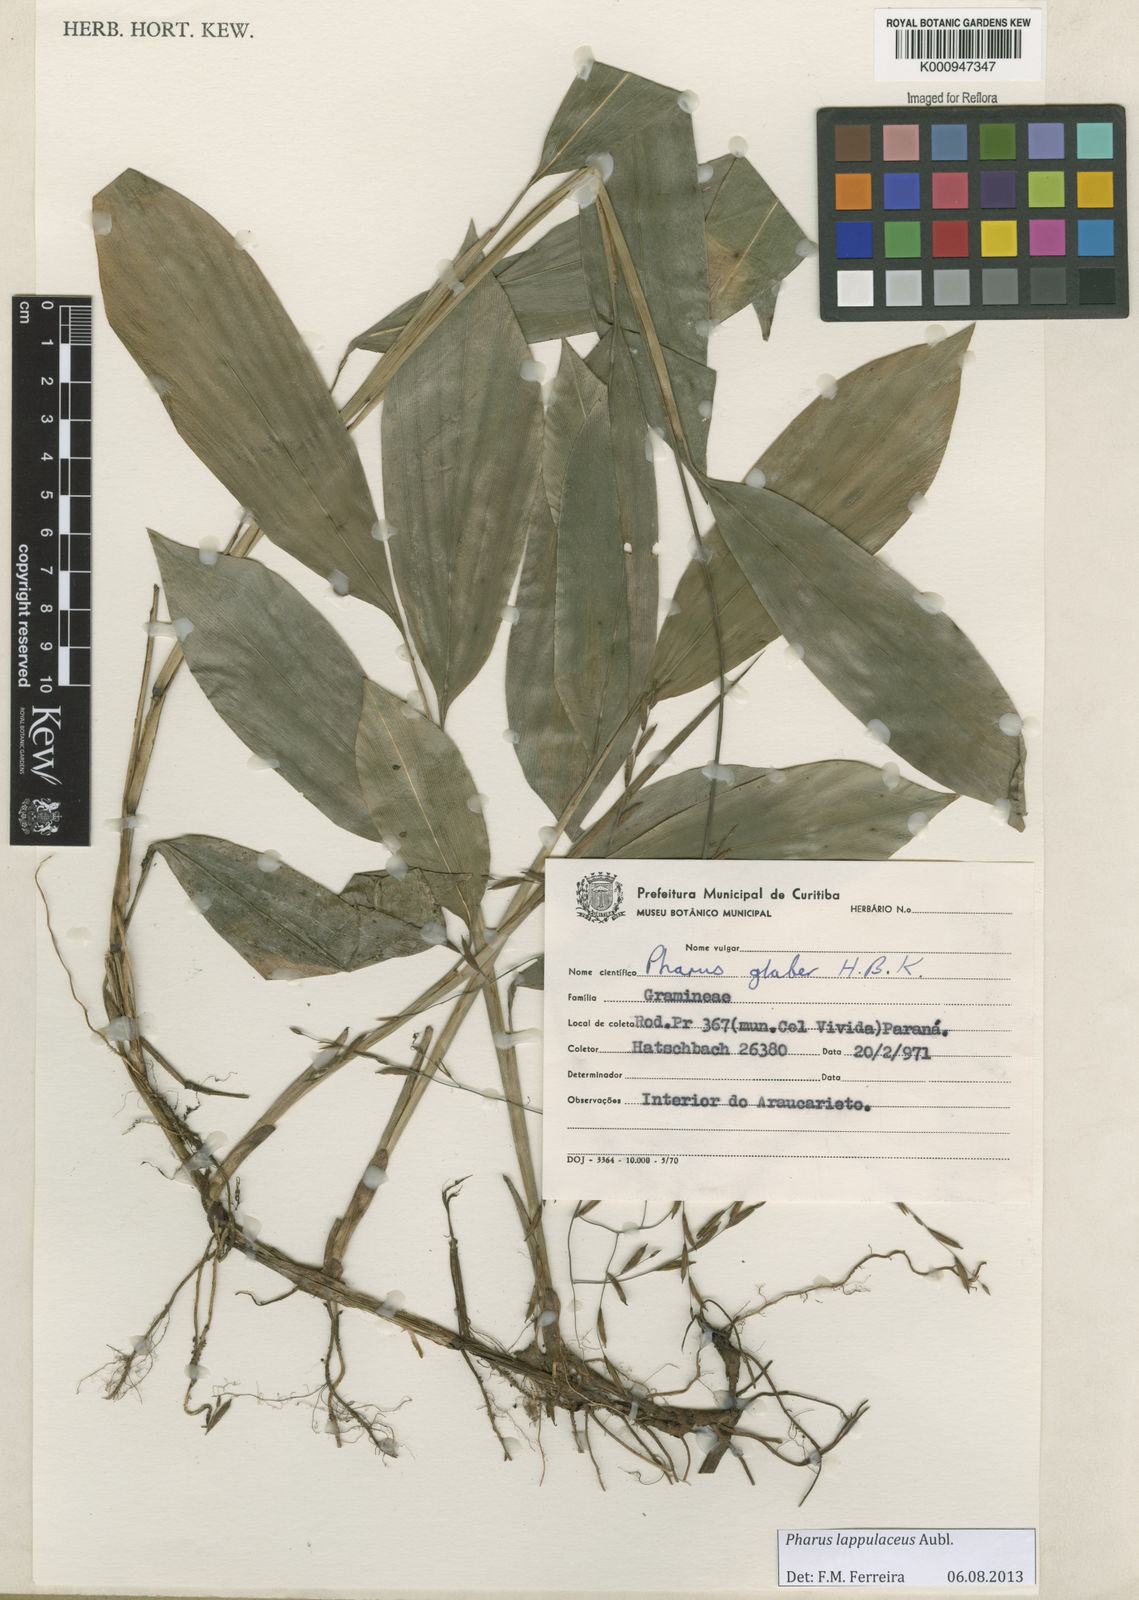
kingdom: Plantae
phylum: Tracheophyta
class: Liliopsida
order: Poales
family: Poaceae
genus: Pharus
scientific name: Pharus lappulaceus
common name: Creeping leafstalk grass
